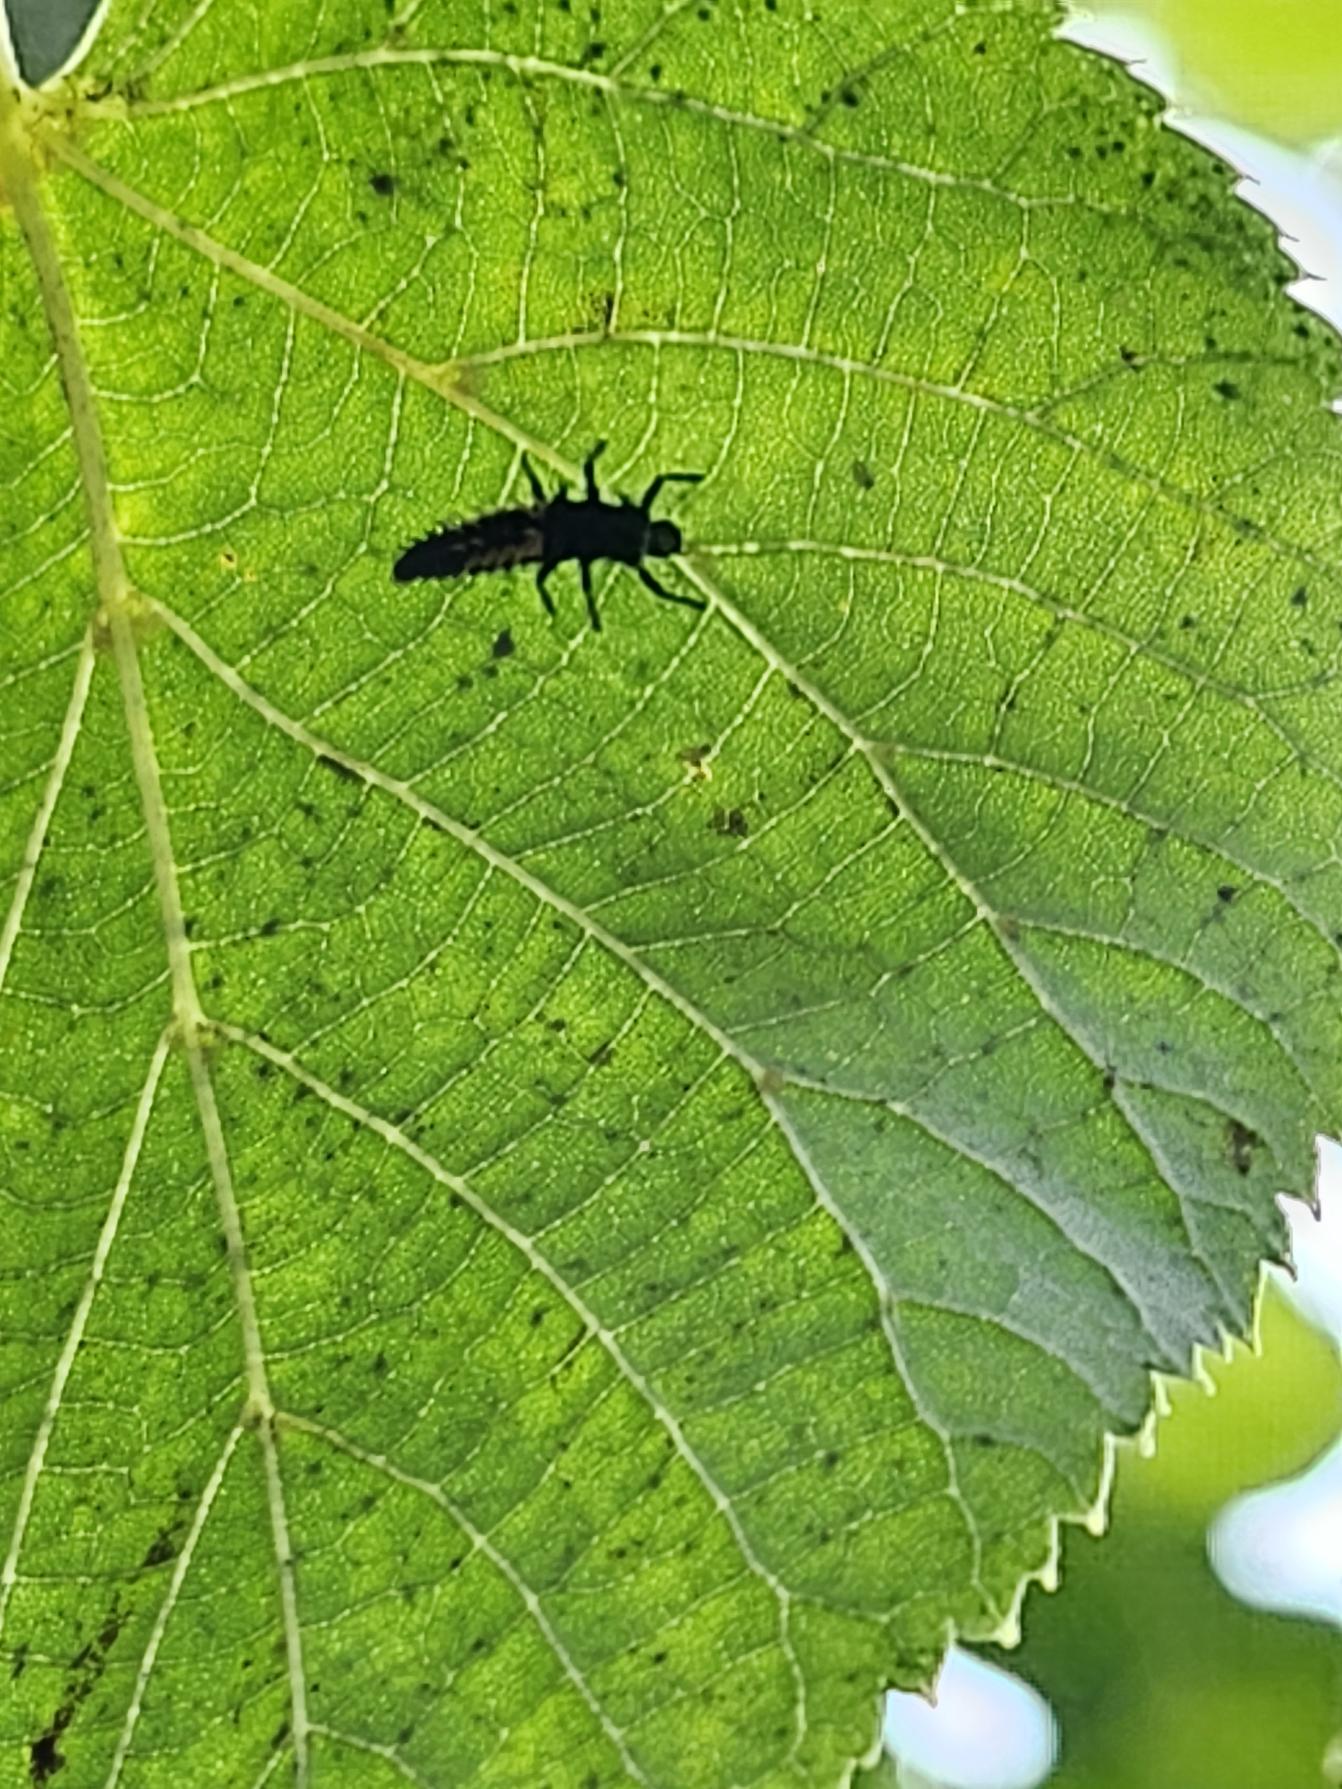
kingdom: Animalia
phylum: Arthropoda
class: Insecta
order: Coleoptera
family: Coccinellidae
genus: Harmonia
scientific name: Harmonia axyridis
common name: Harlekinmariehøne
